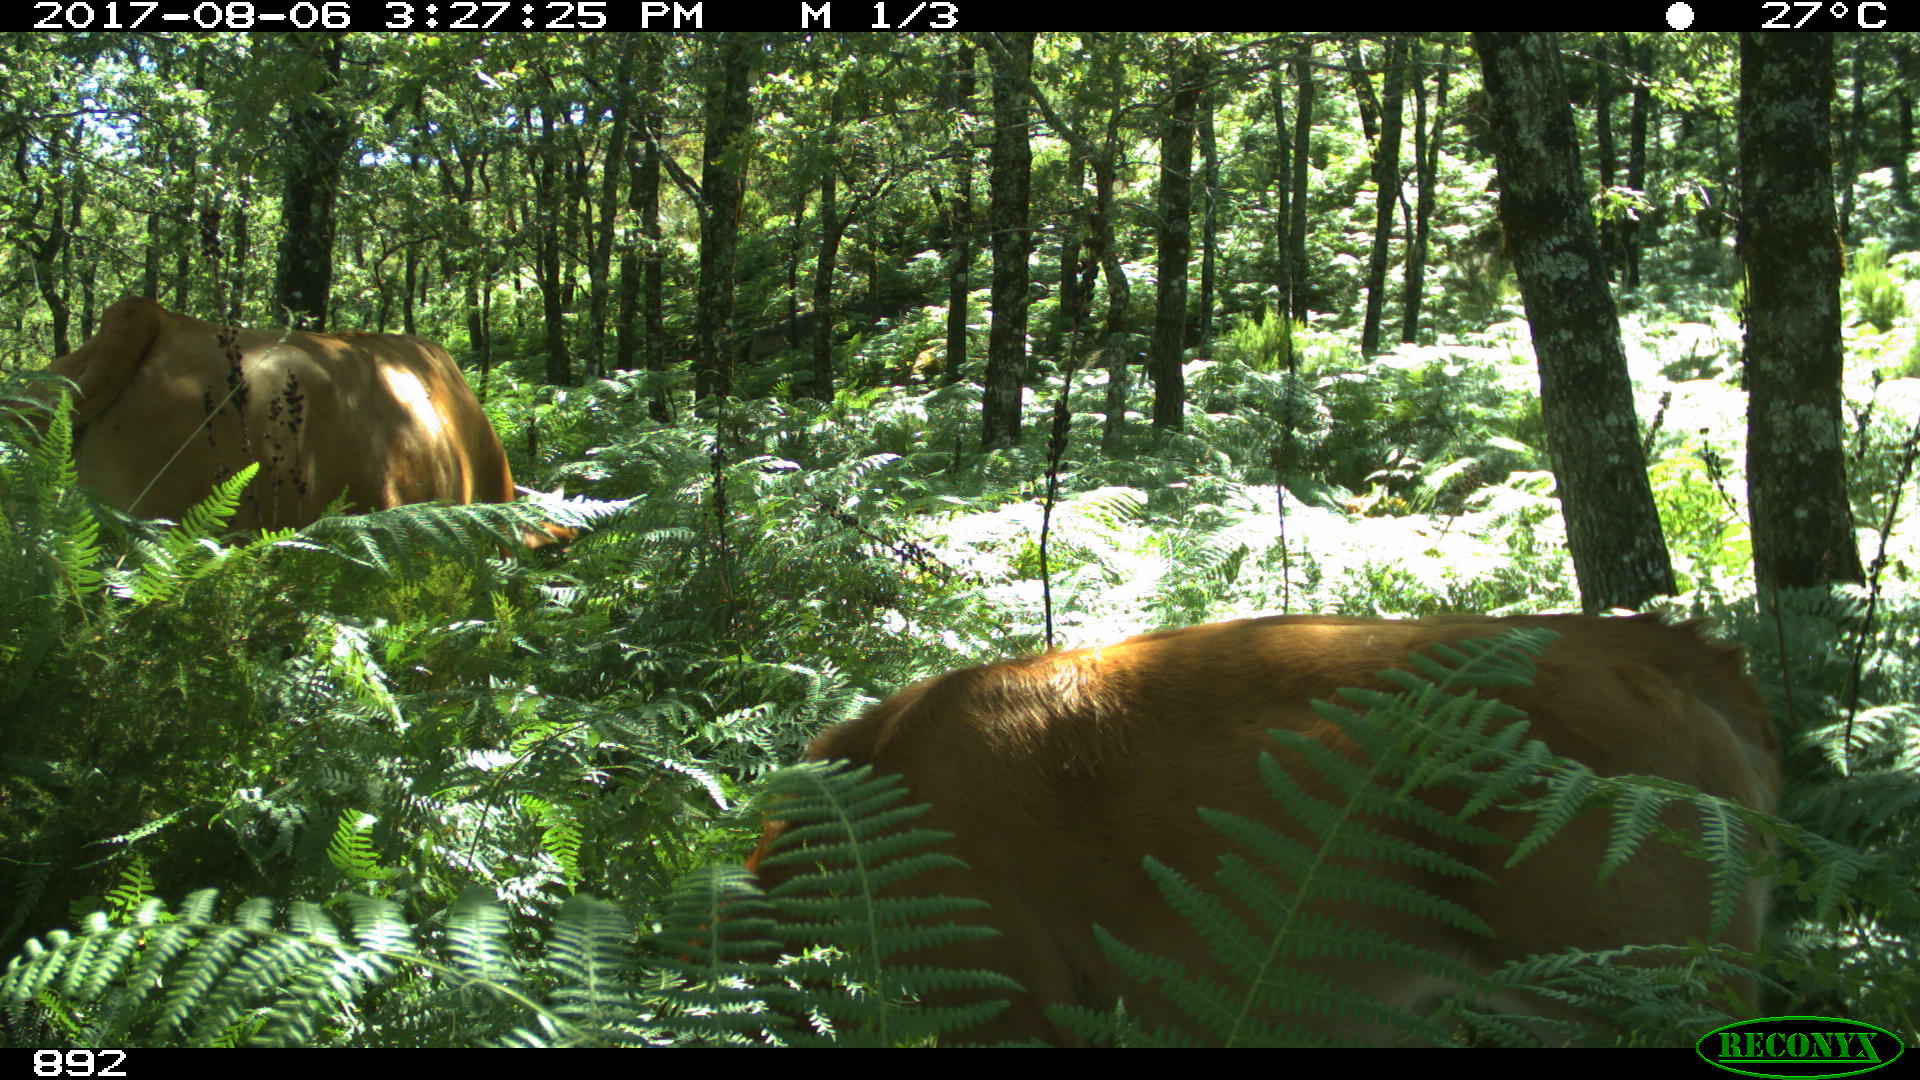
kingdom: Animalia
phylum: Chordata
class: Mammalia
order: Artiodactyla
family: Bovidae
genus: Bos
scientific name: Bos taurus
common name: Domesticated cattle
